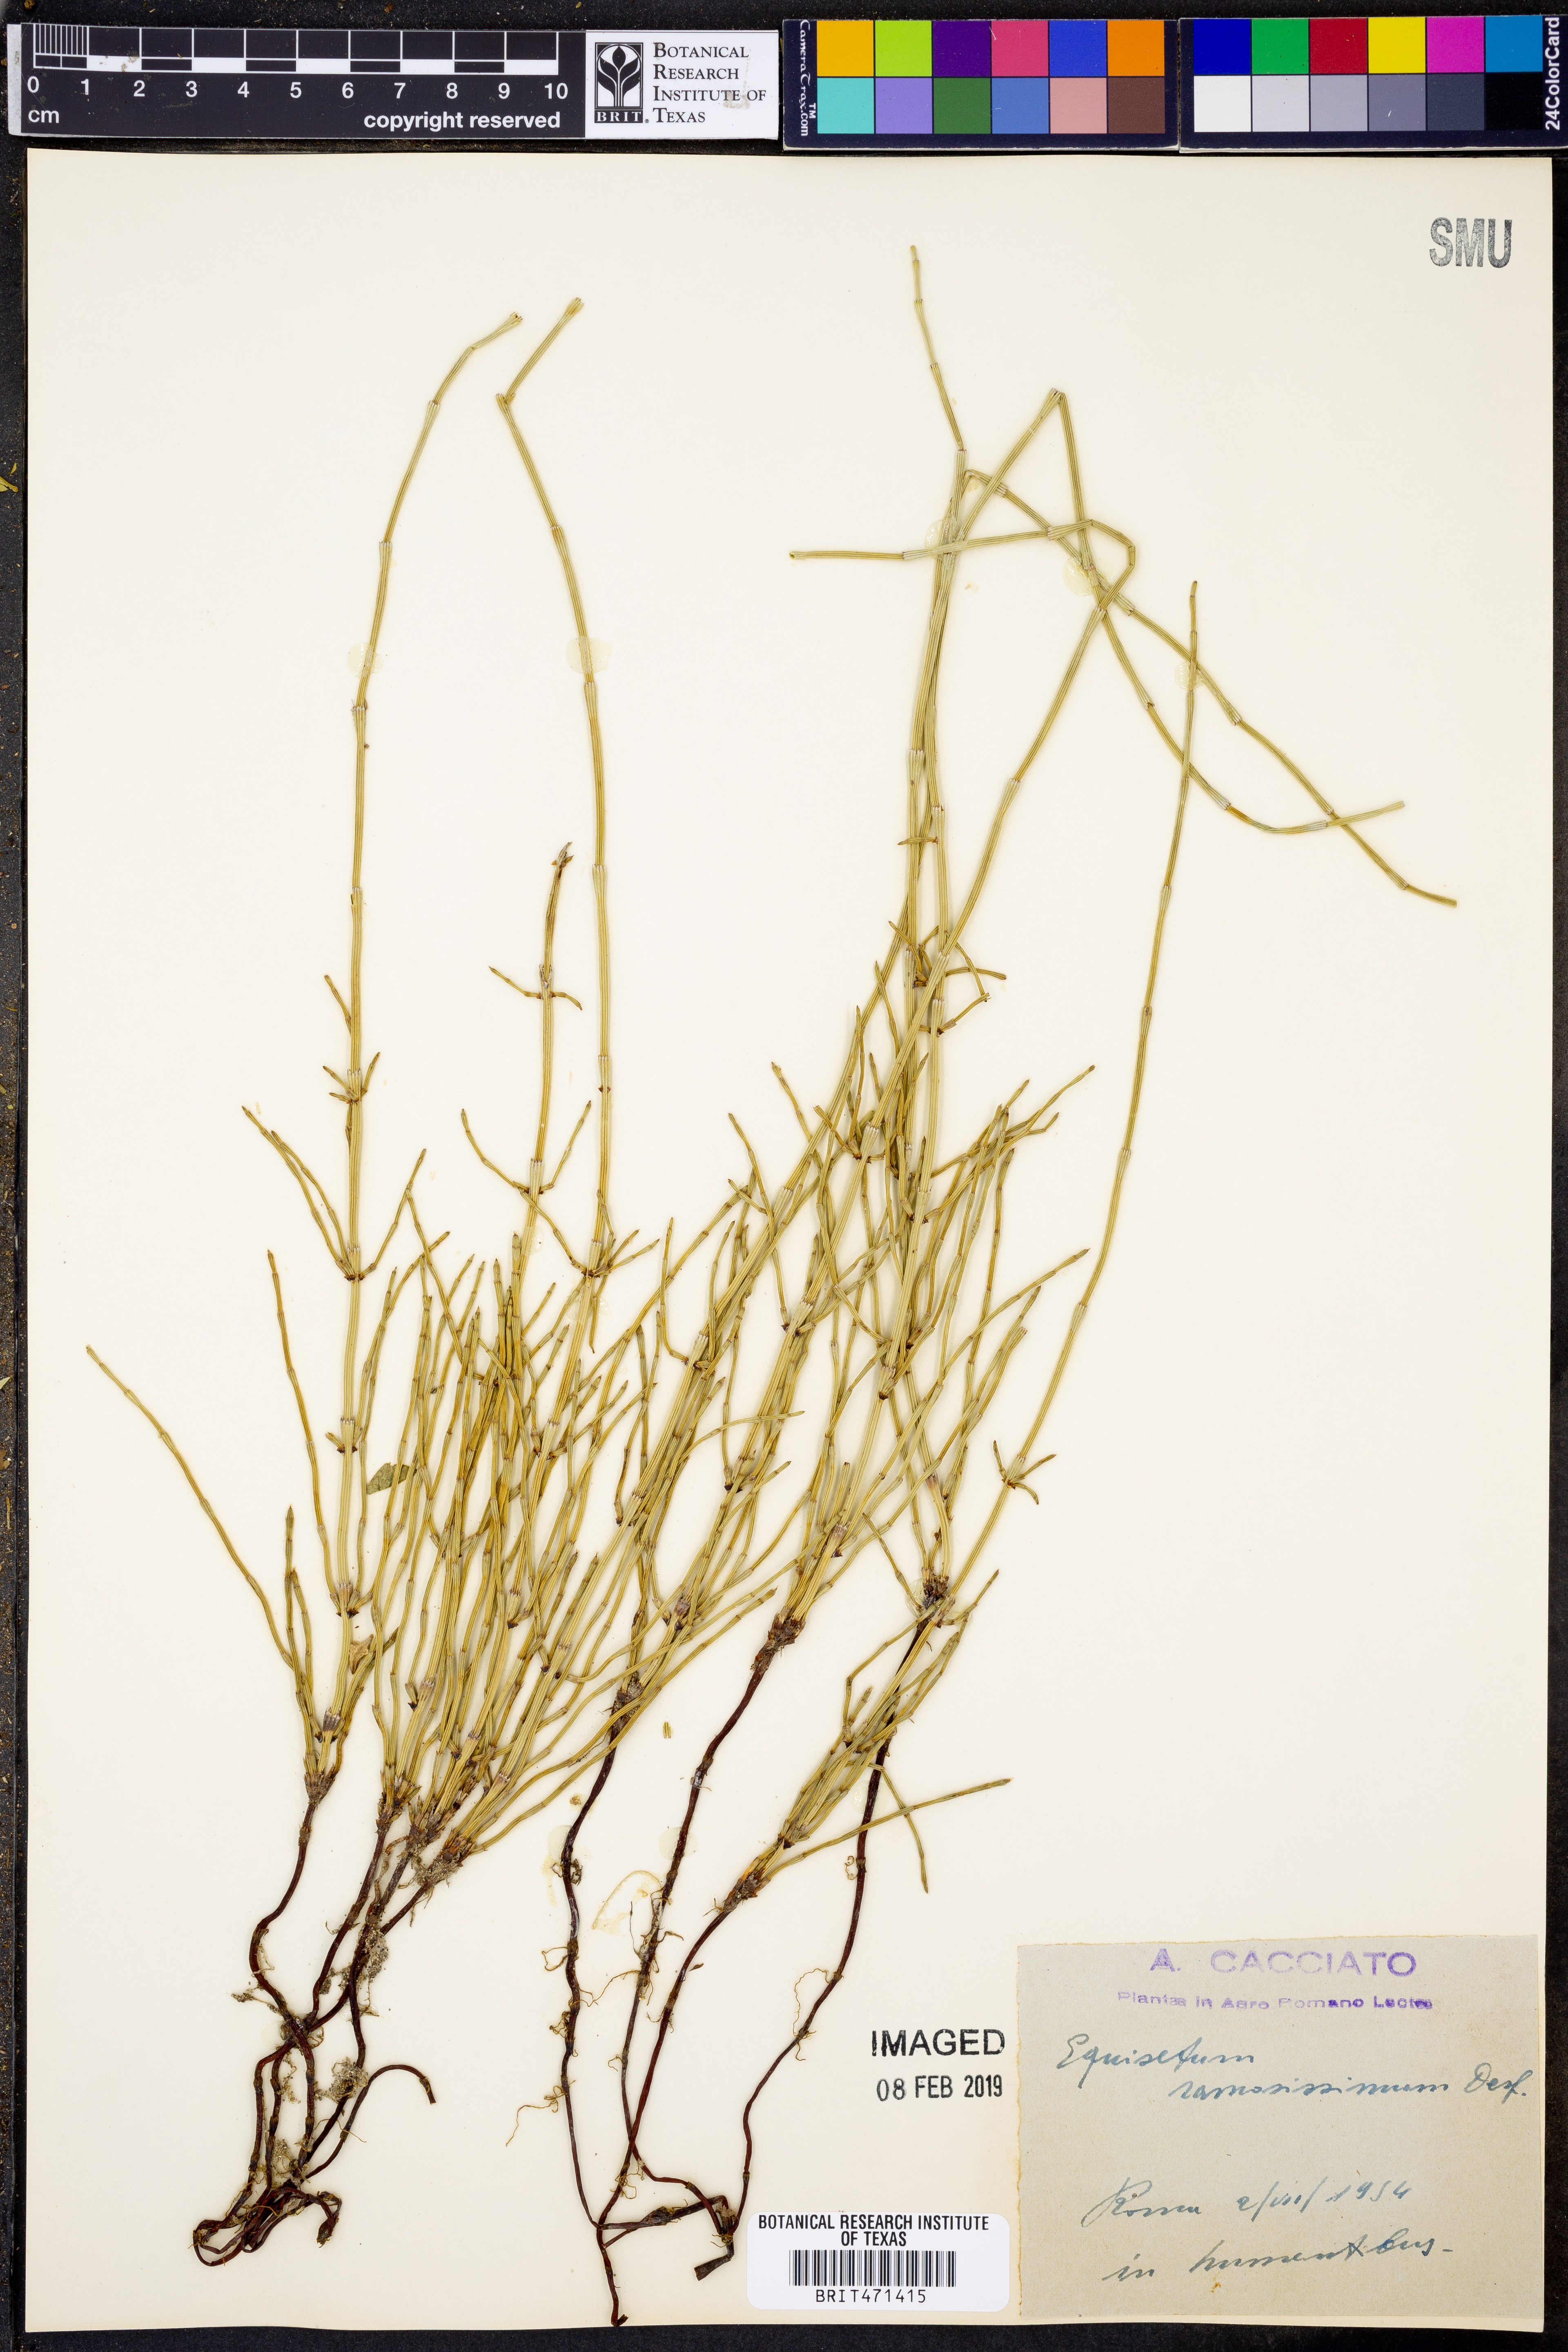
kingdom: Plantae
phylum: Tracheophyta
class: Polypodiopsida
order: Equisetales
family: Equisetaceae
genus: Equisetum
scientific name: Equisetum ramosissimum
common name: Branched horsetail
